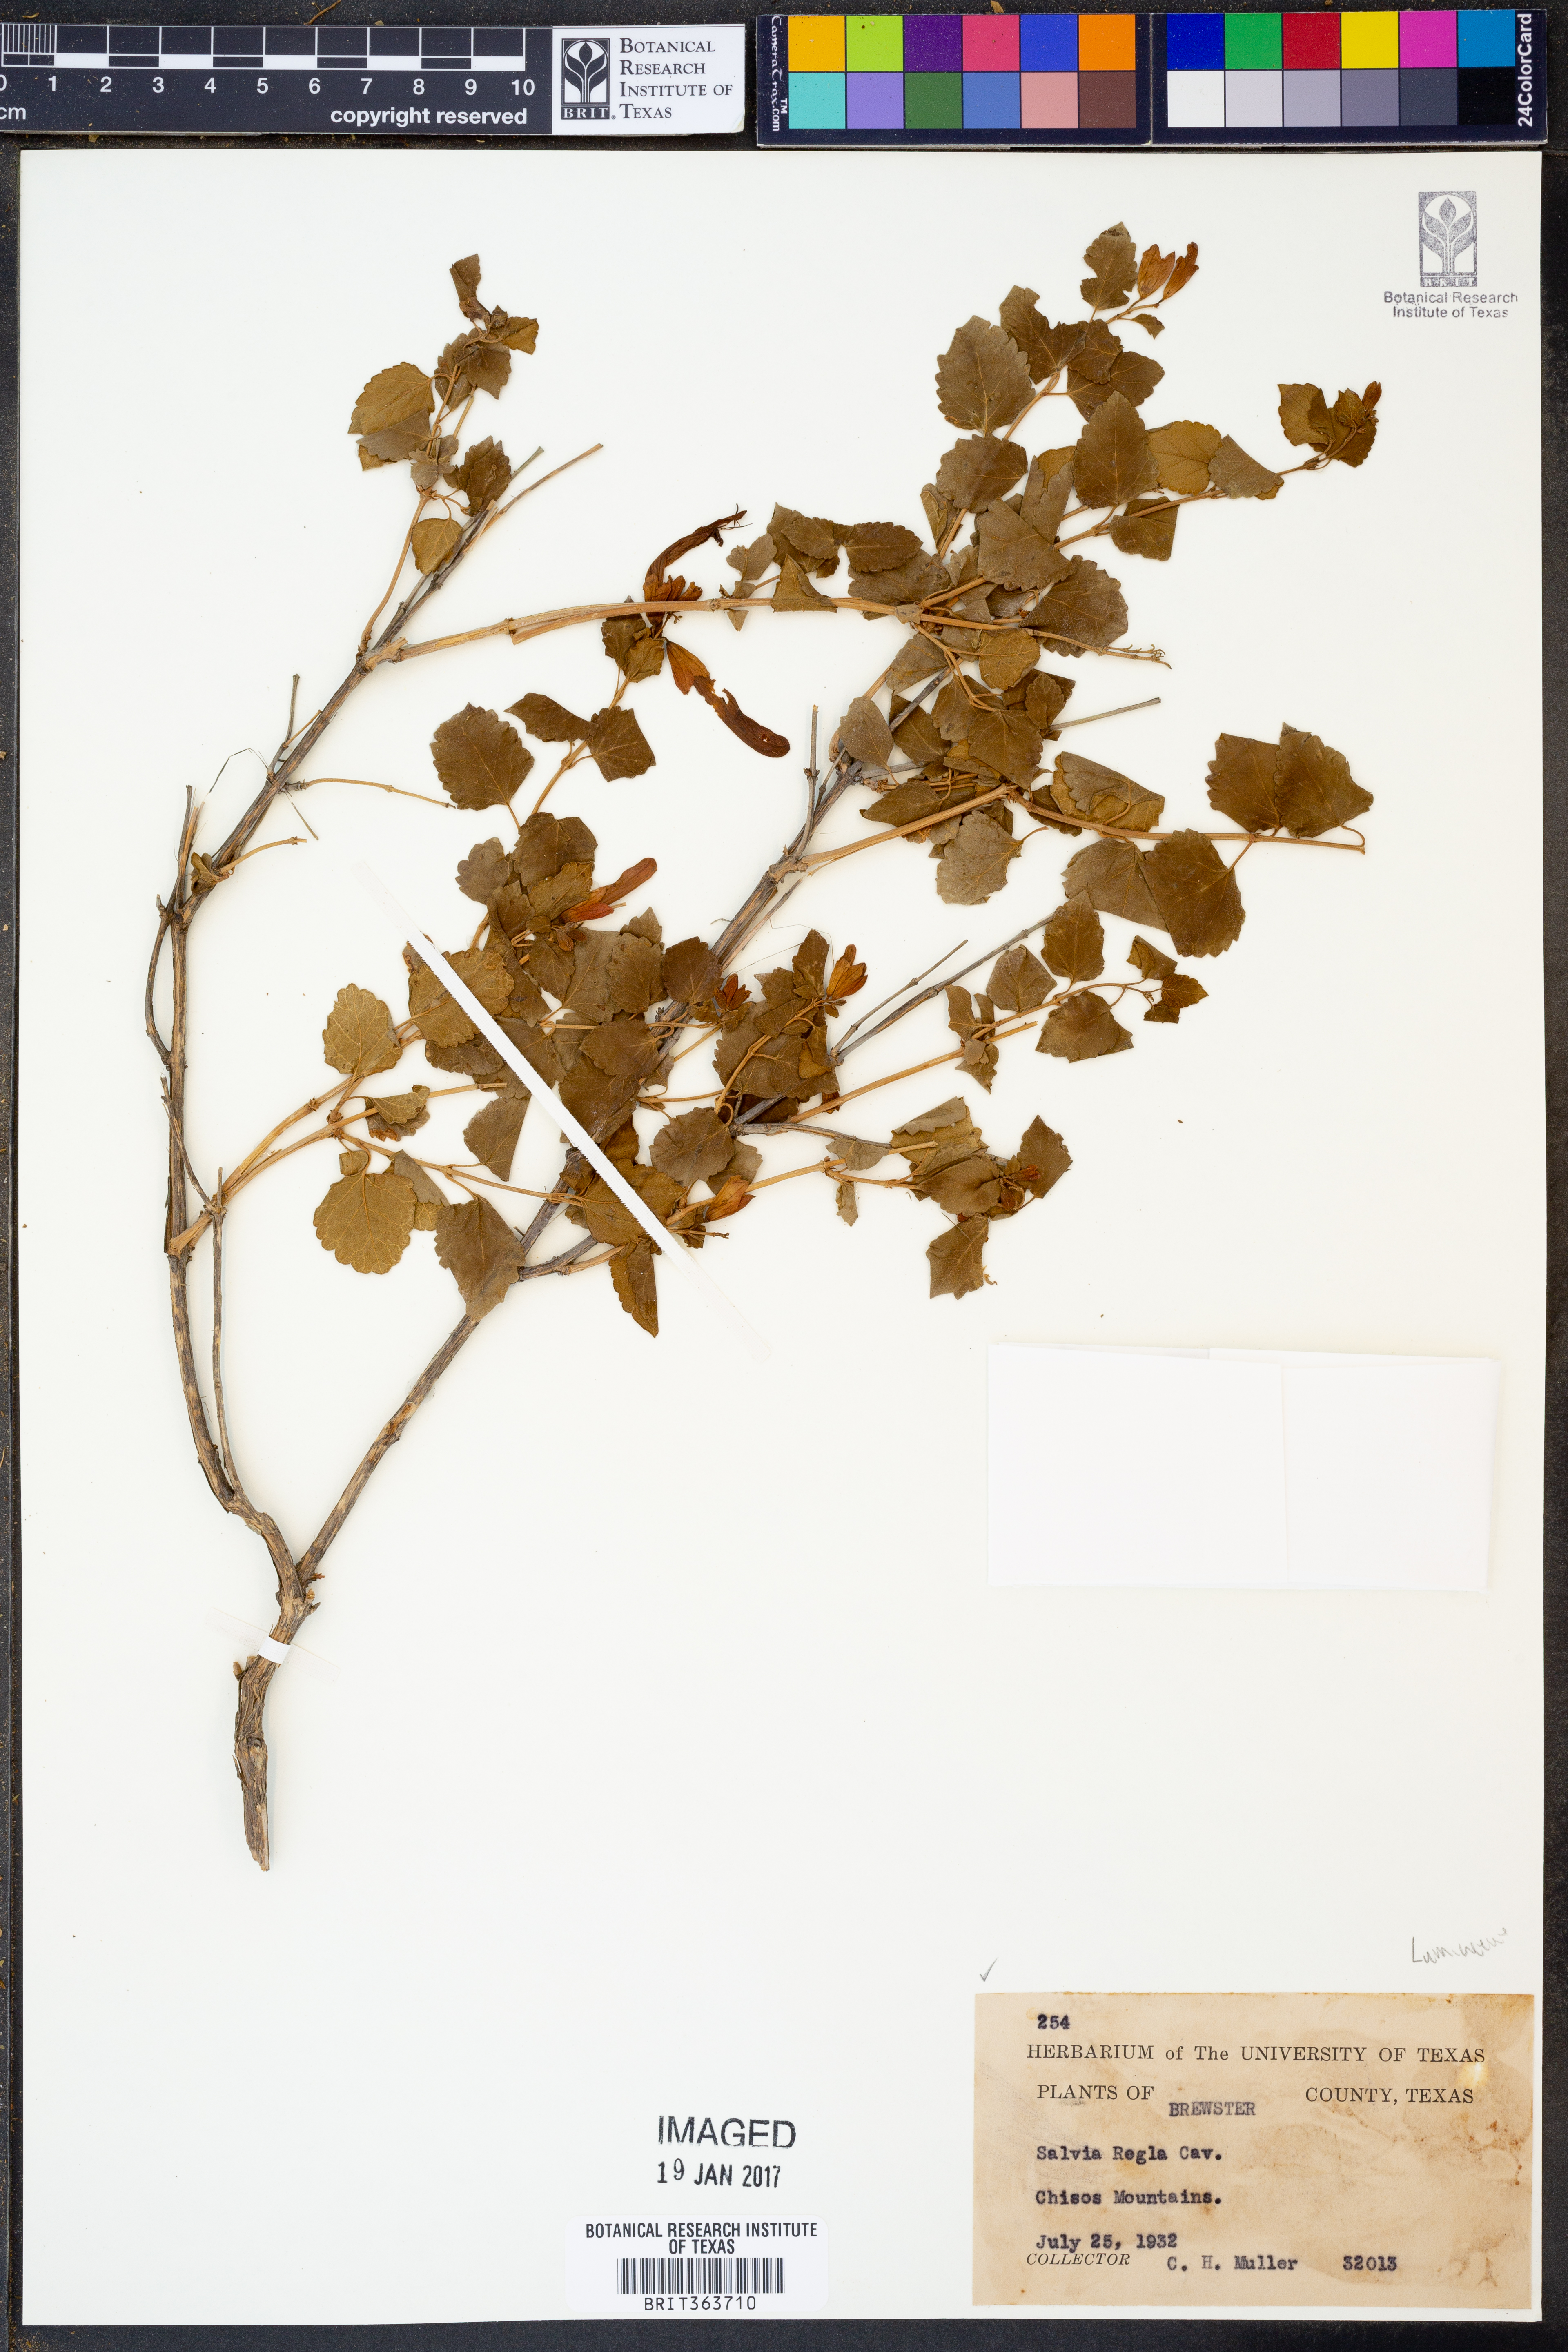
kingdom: Plantae
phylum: Tracheophyta
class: Magnoliopsida
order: Lamiales
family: Lamiaceae
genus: Salvia
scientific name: Salvia regla
